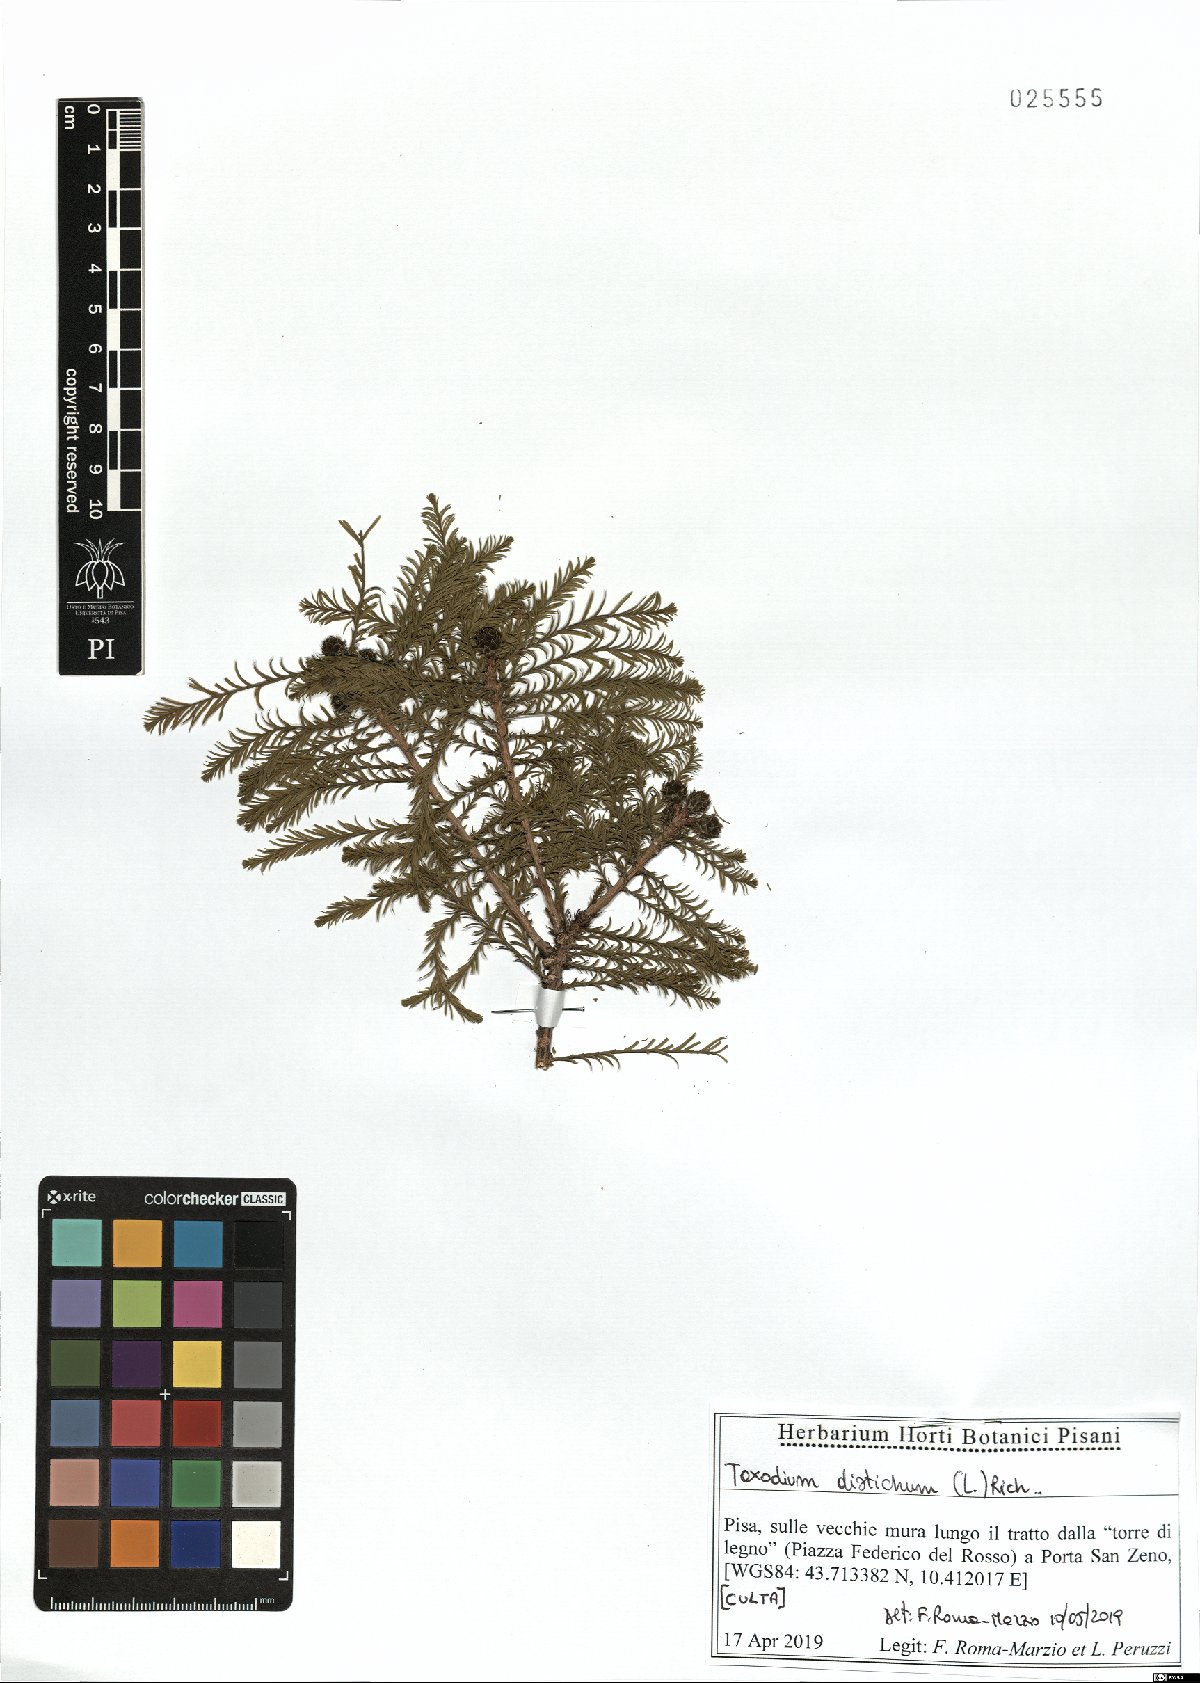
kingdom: Plantae
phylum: Tracheophyta
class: Pinopsida
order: Pinales
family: Cupressaceae
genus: Taxodium
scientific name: Taxodium distichum
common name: Bald cypress
